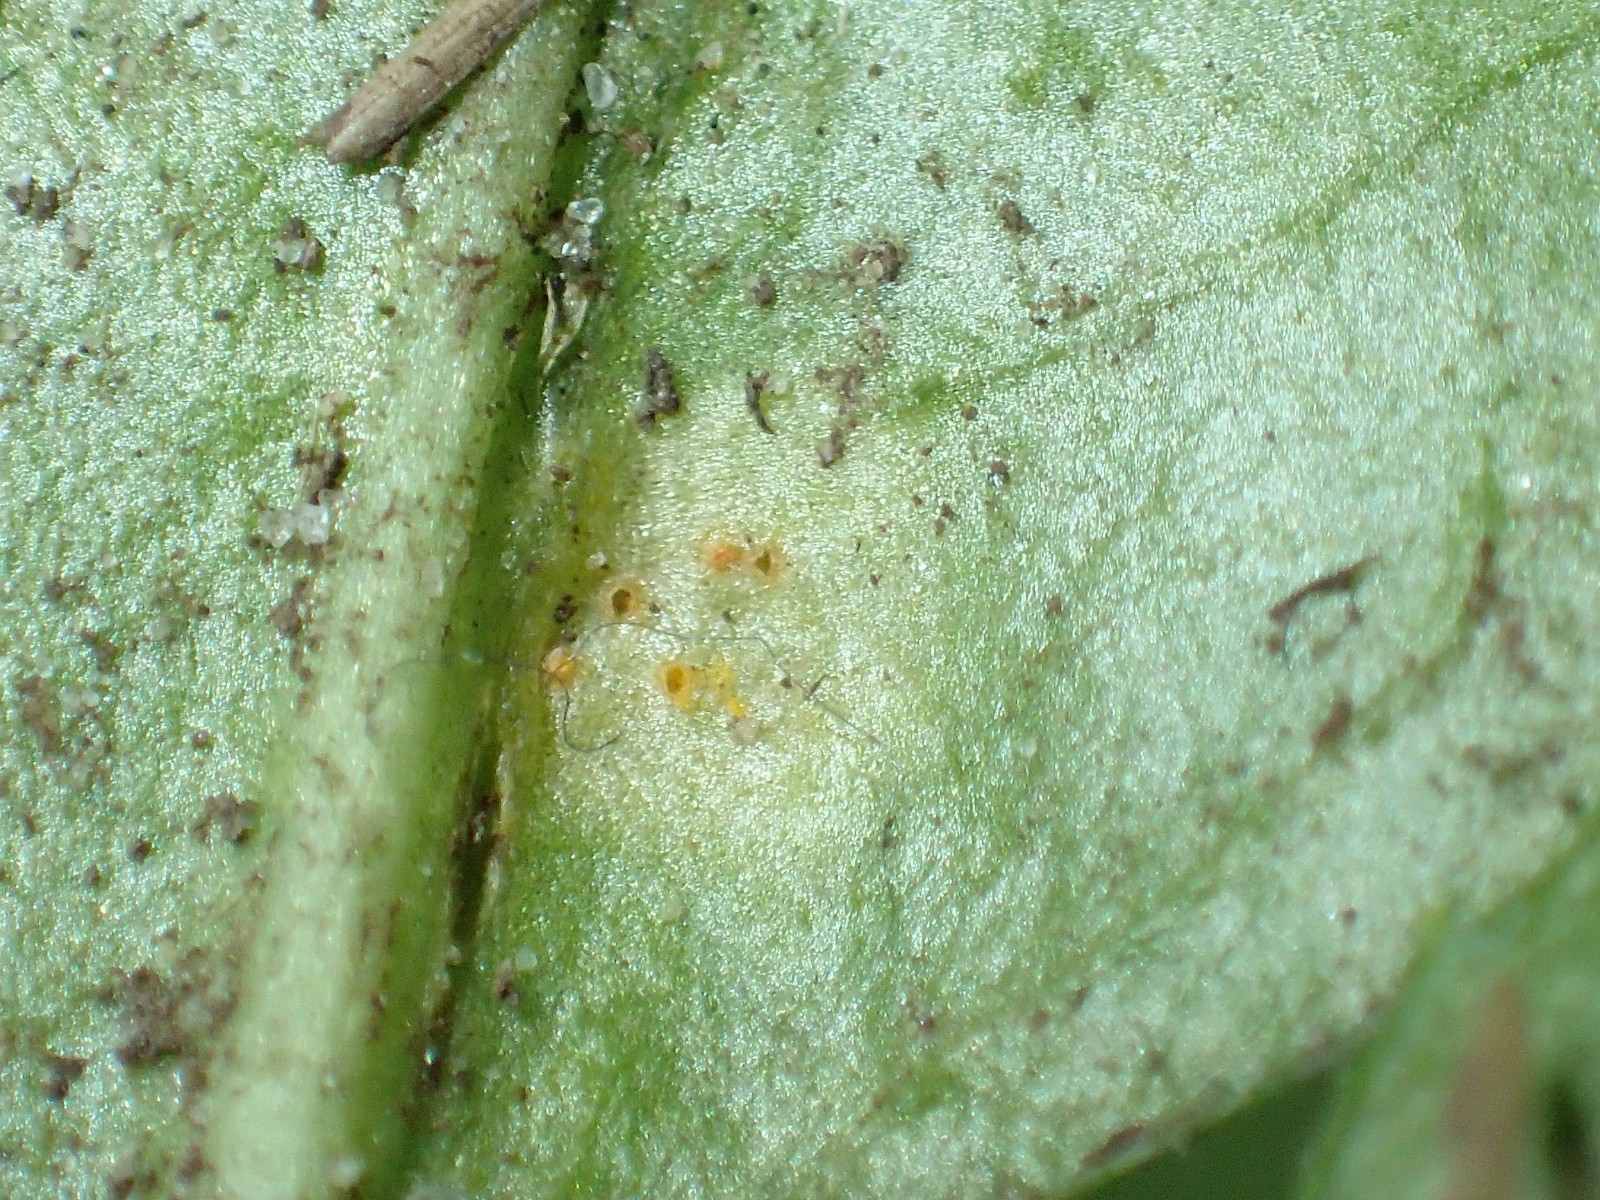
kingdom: Fungi
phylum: Basidiomycota
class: Pucciniomycetes
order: Pucciniales
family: Pucciniaceae
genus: Puccinia
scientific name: Puccinia obscura
